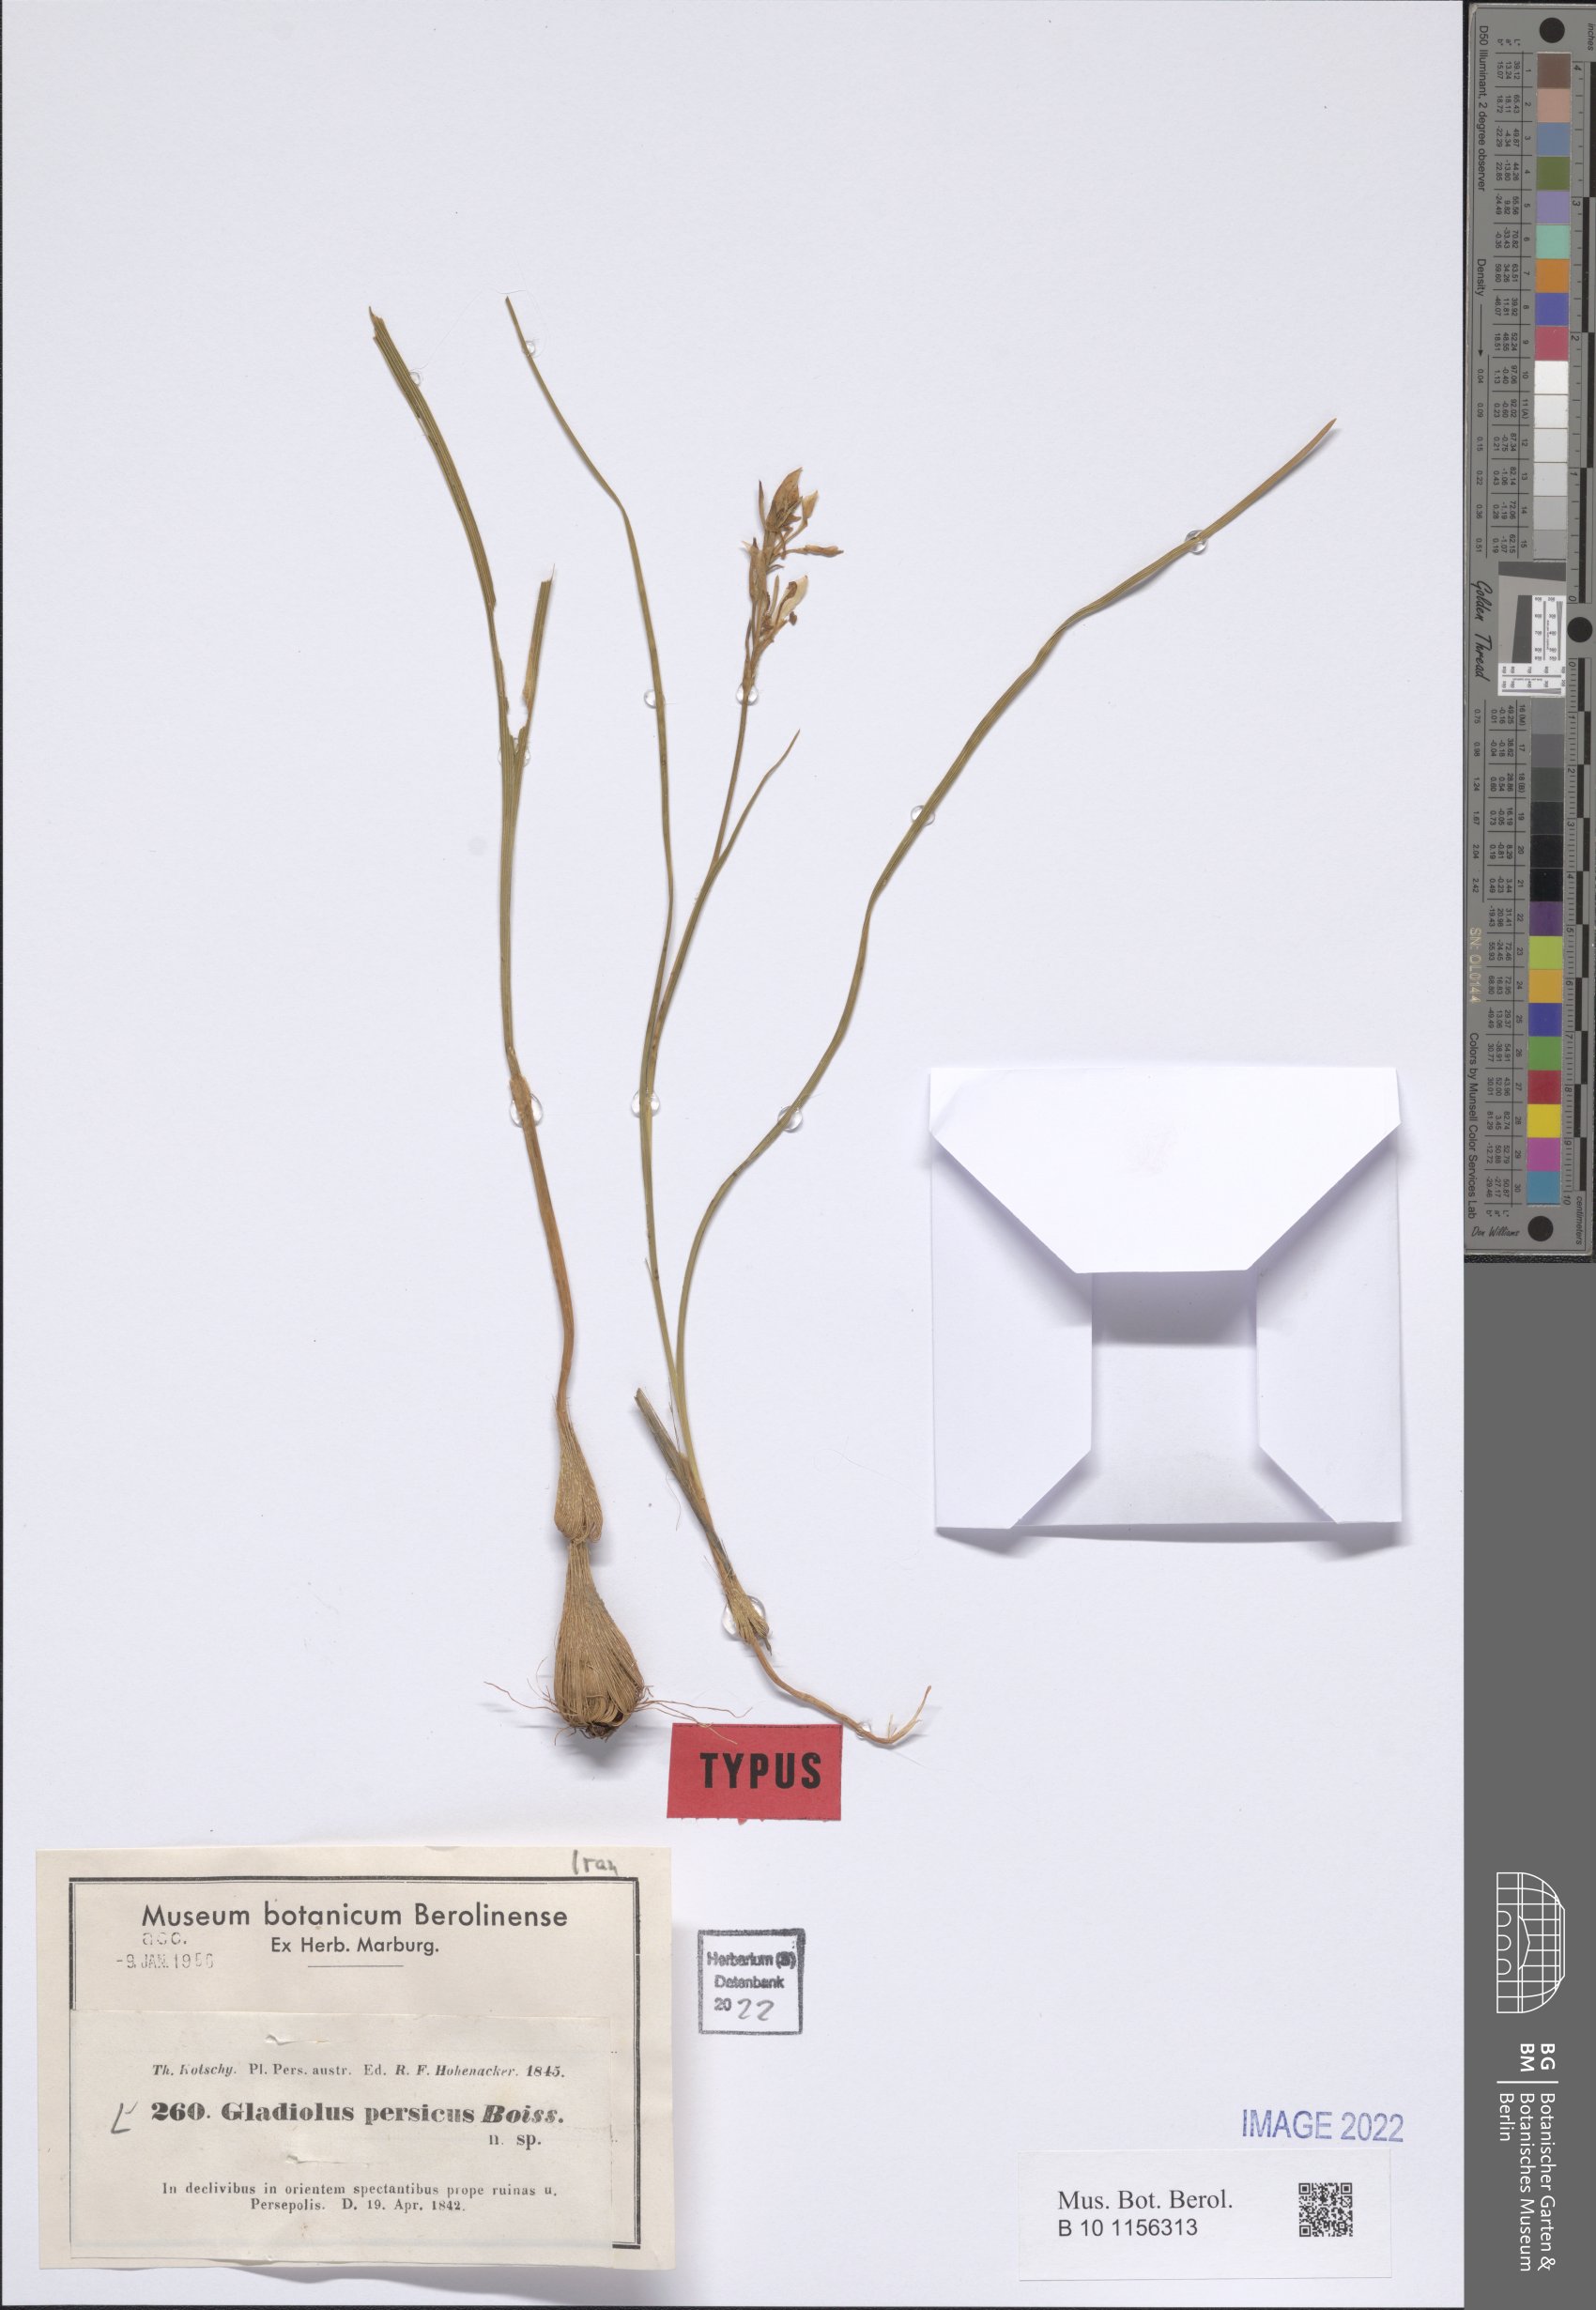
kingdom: Plantae
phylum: Tracheophyta
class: Liliopsida
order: Asparagales
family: Iridaceae
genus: Gladiolus
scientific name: Gladiolus persicus
